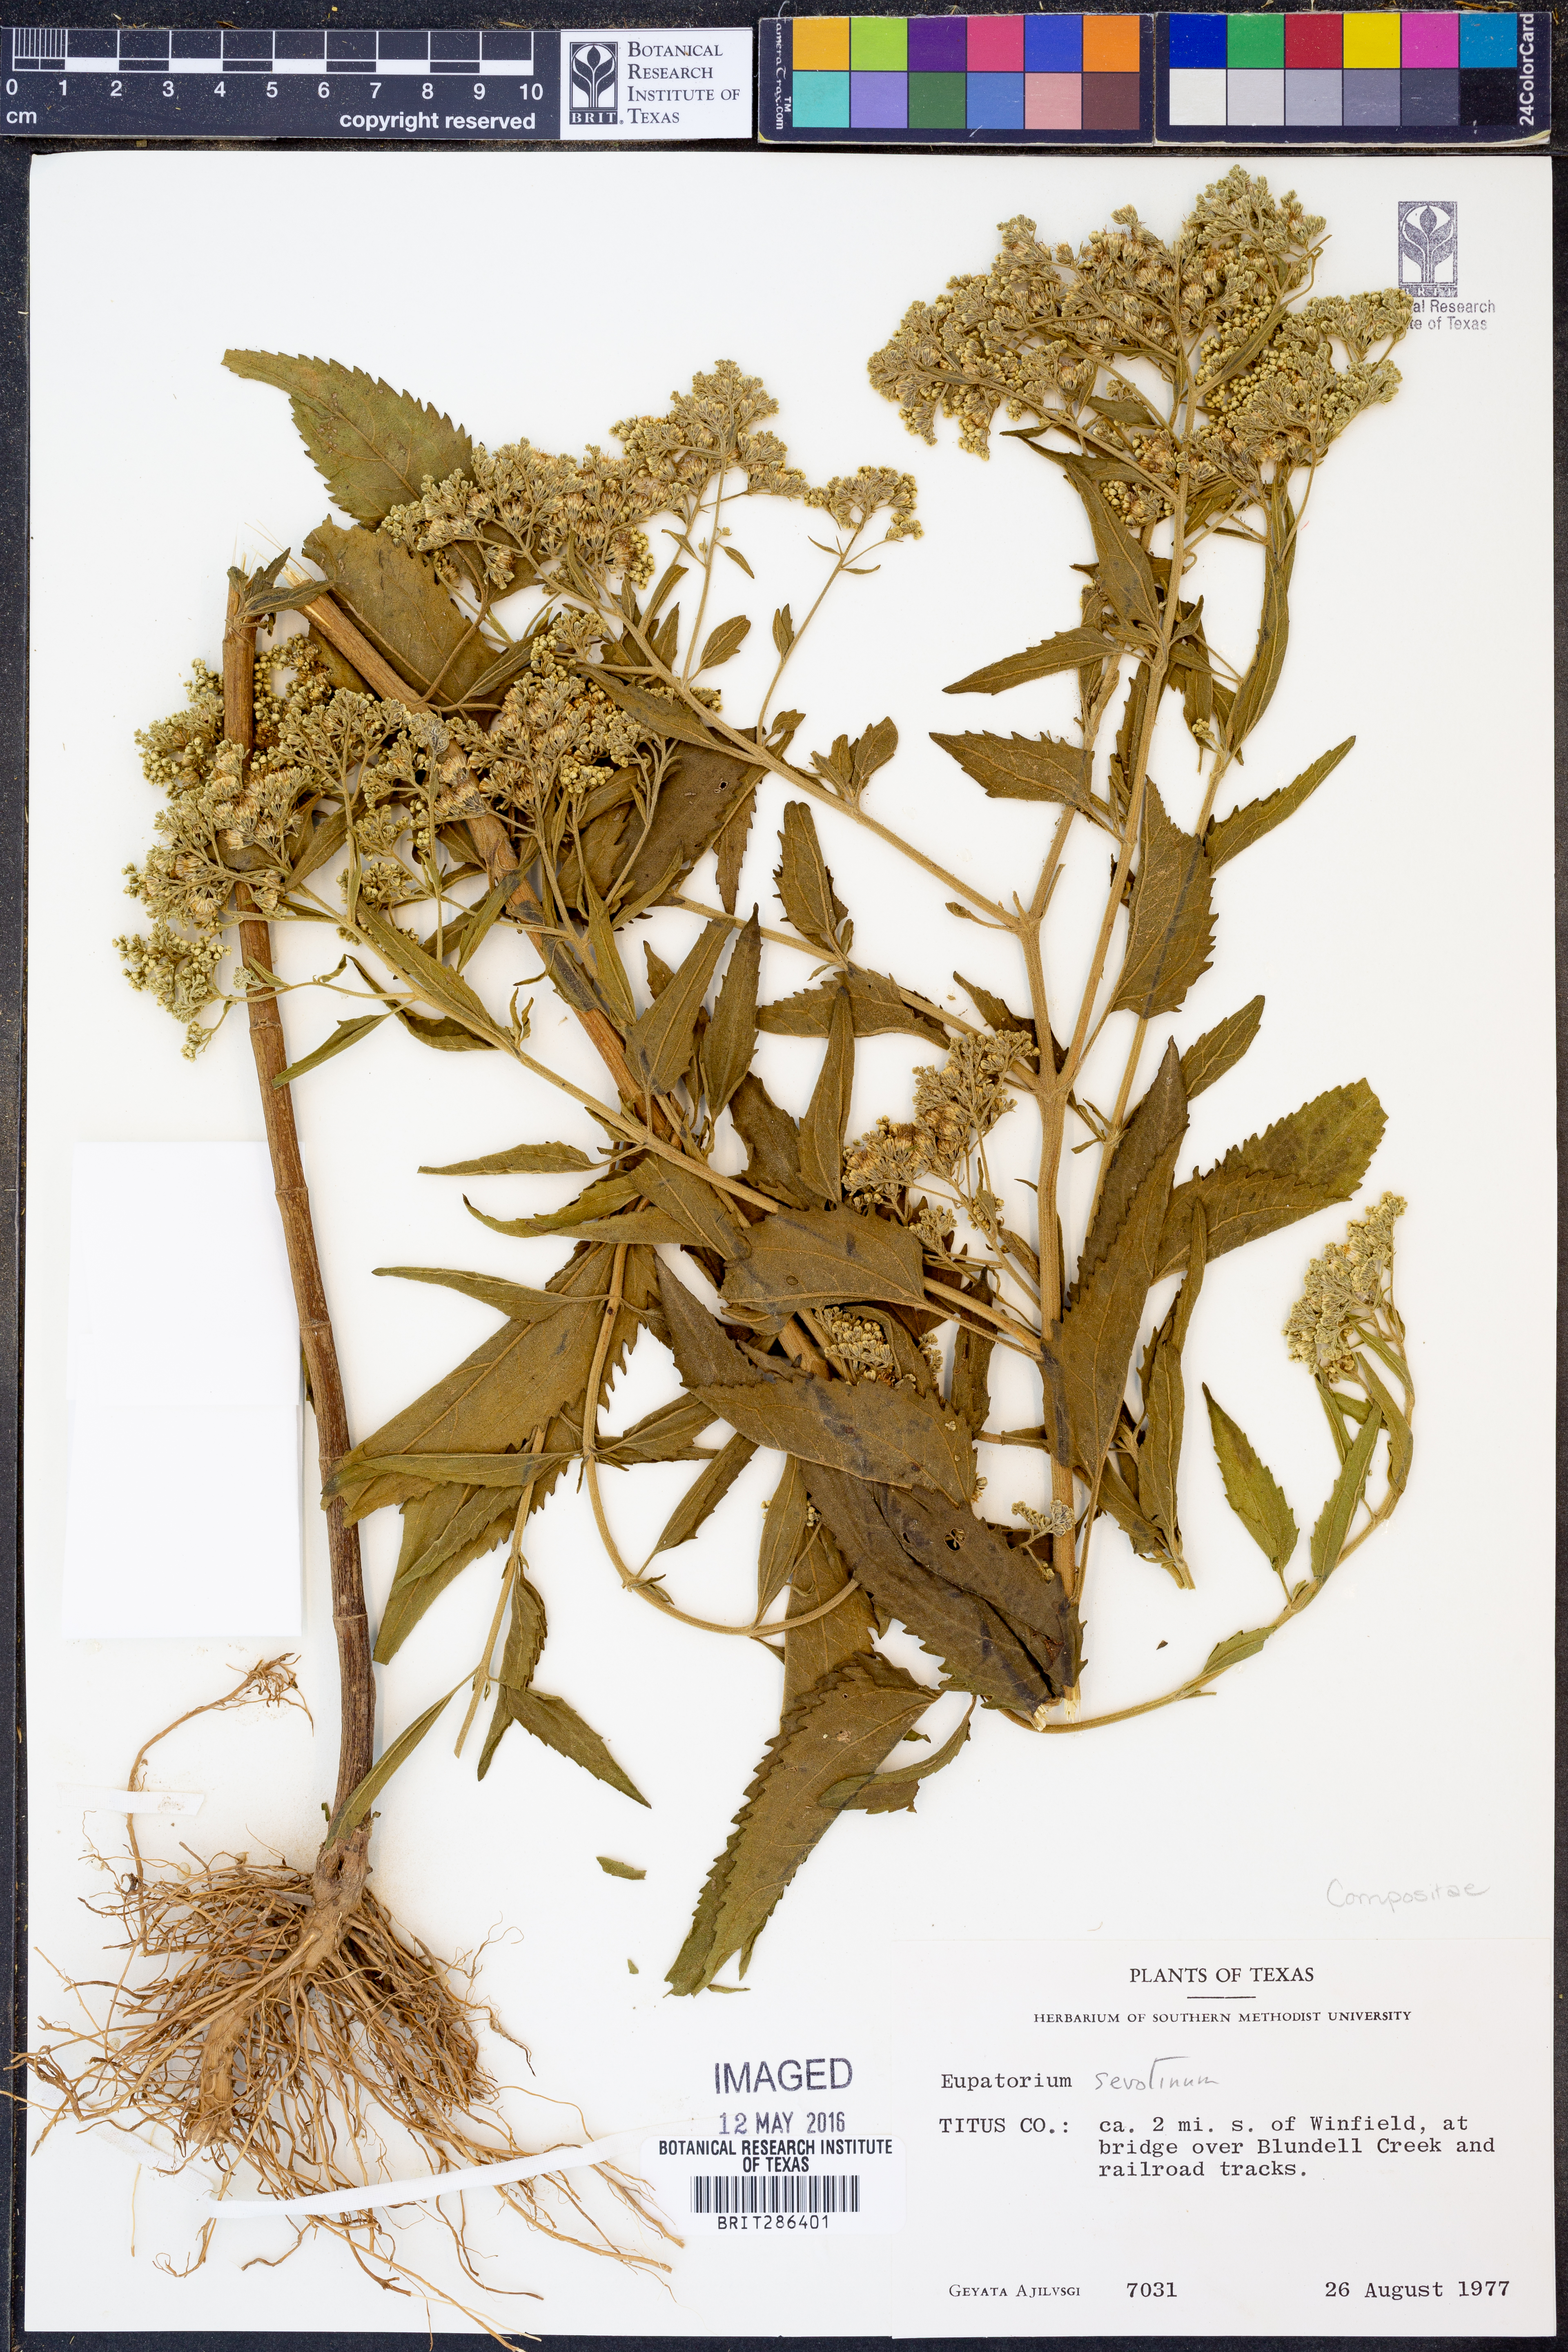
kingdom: Plantae
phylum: Tracheophyta
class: Magnoliopsida
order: Asterales
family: Asteraceae
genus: Eupatorium
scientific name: Eupatorium serotinum
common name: Late boneset
